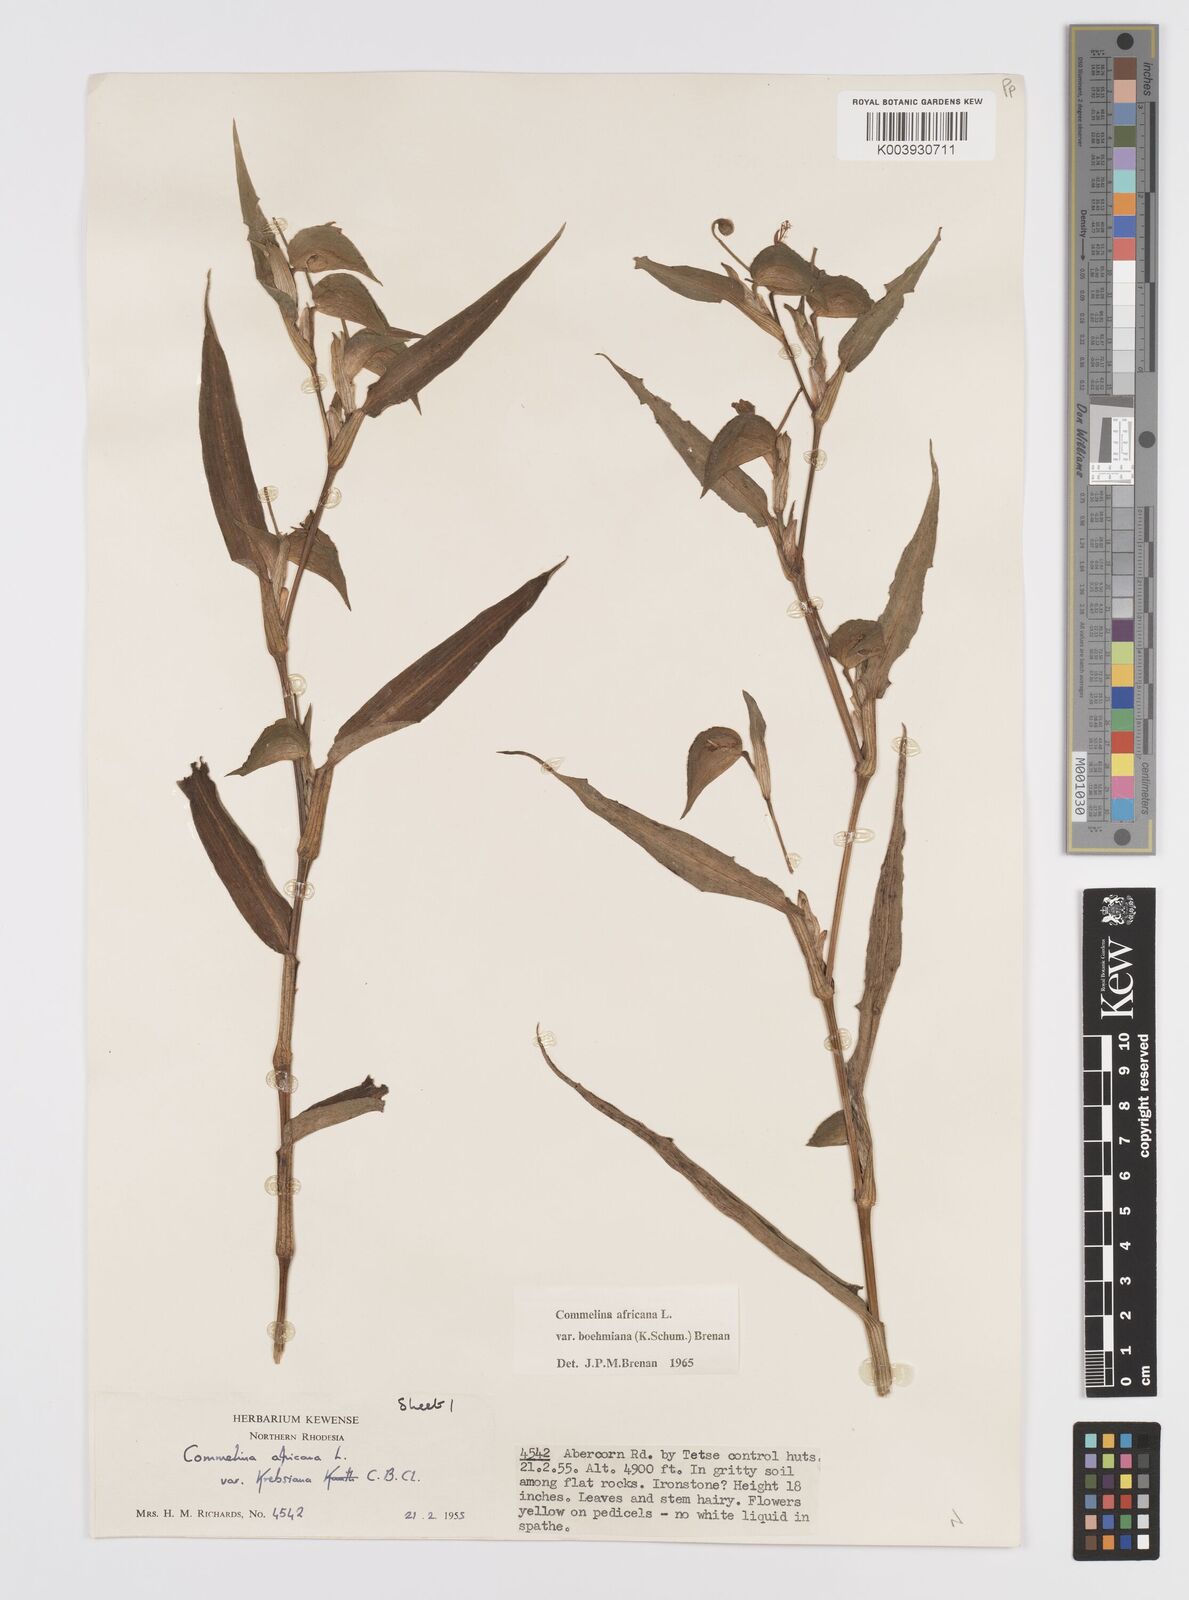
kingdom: Plantae
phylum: Tracheophyta
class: Liliopsida
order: Commelinales
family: Commelinaceae
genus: Commelina
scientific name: Commelina africana
